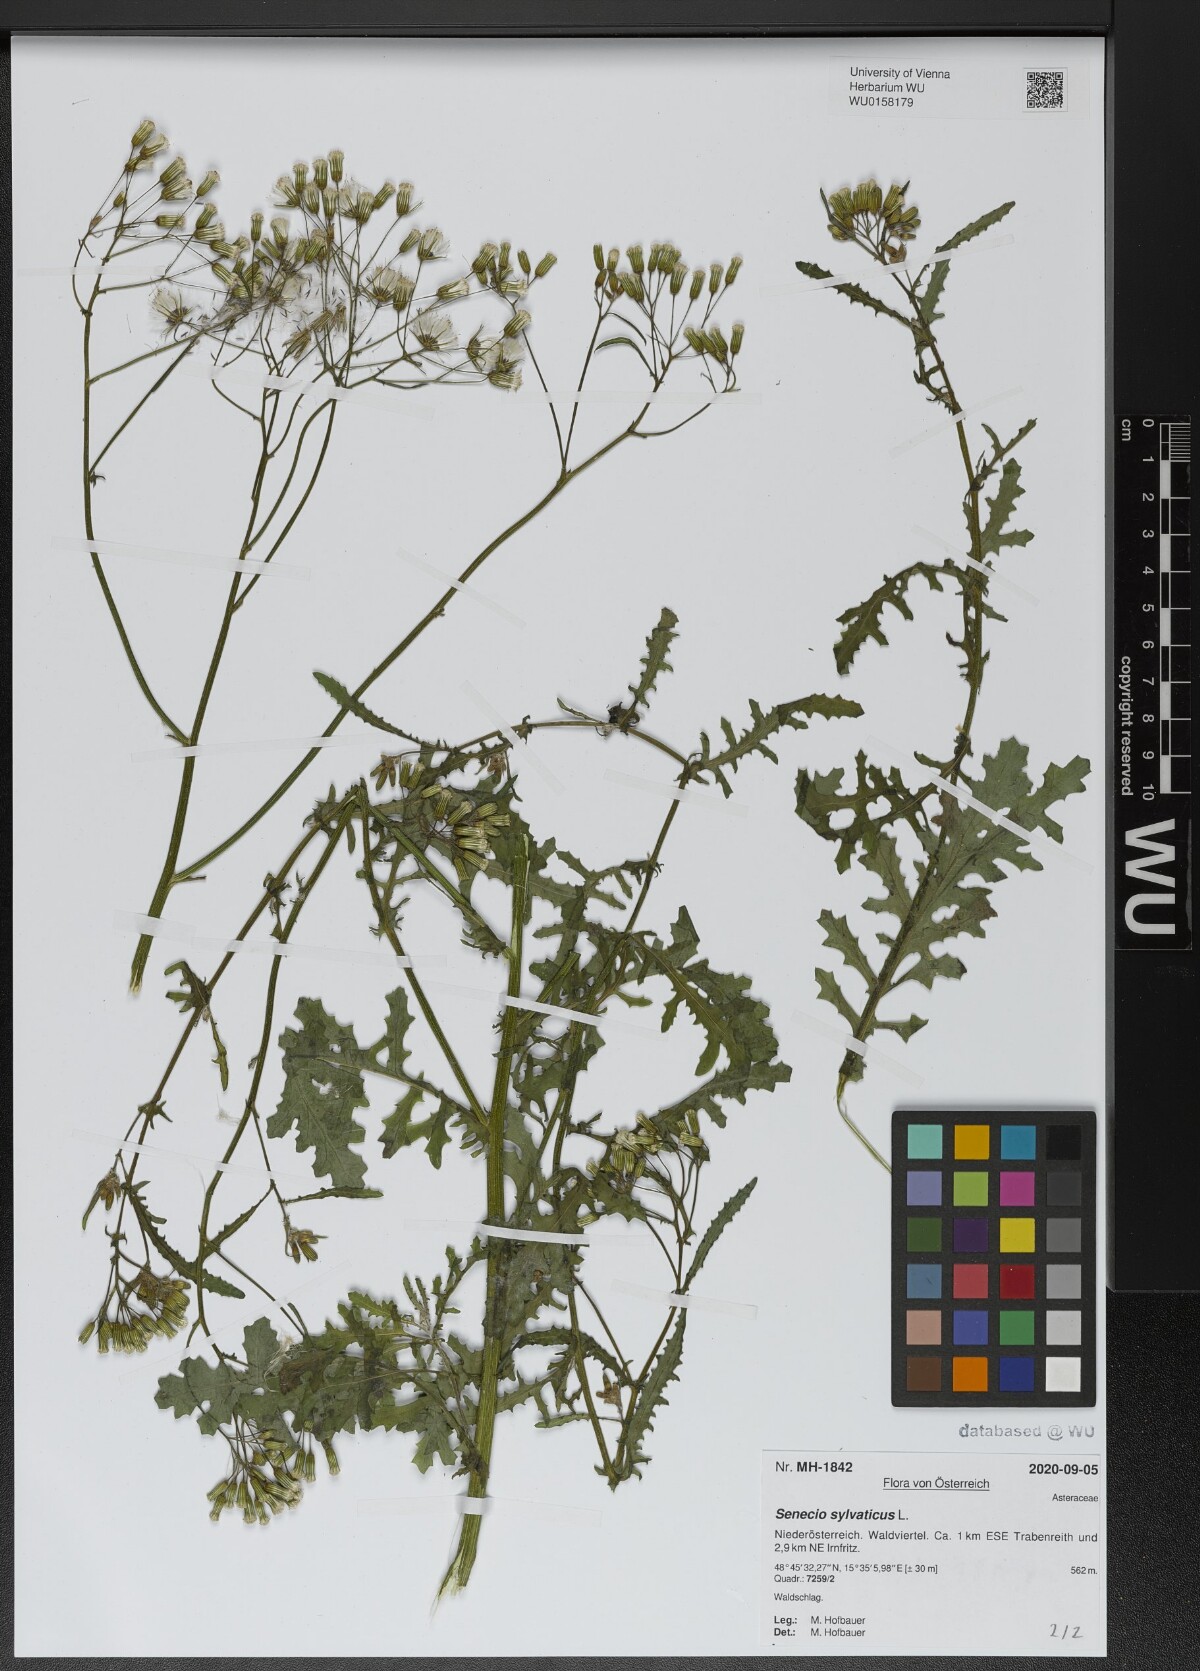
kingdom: Plantae
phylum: Tracheophyta
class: Magnoliopsida
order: Asterales
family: Asteraceae
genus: Senecio
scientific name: Senecio sylvaticus
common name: Woodland ragwort
